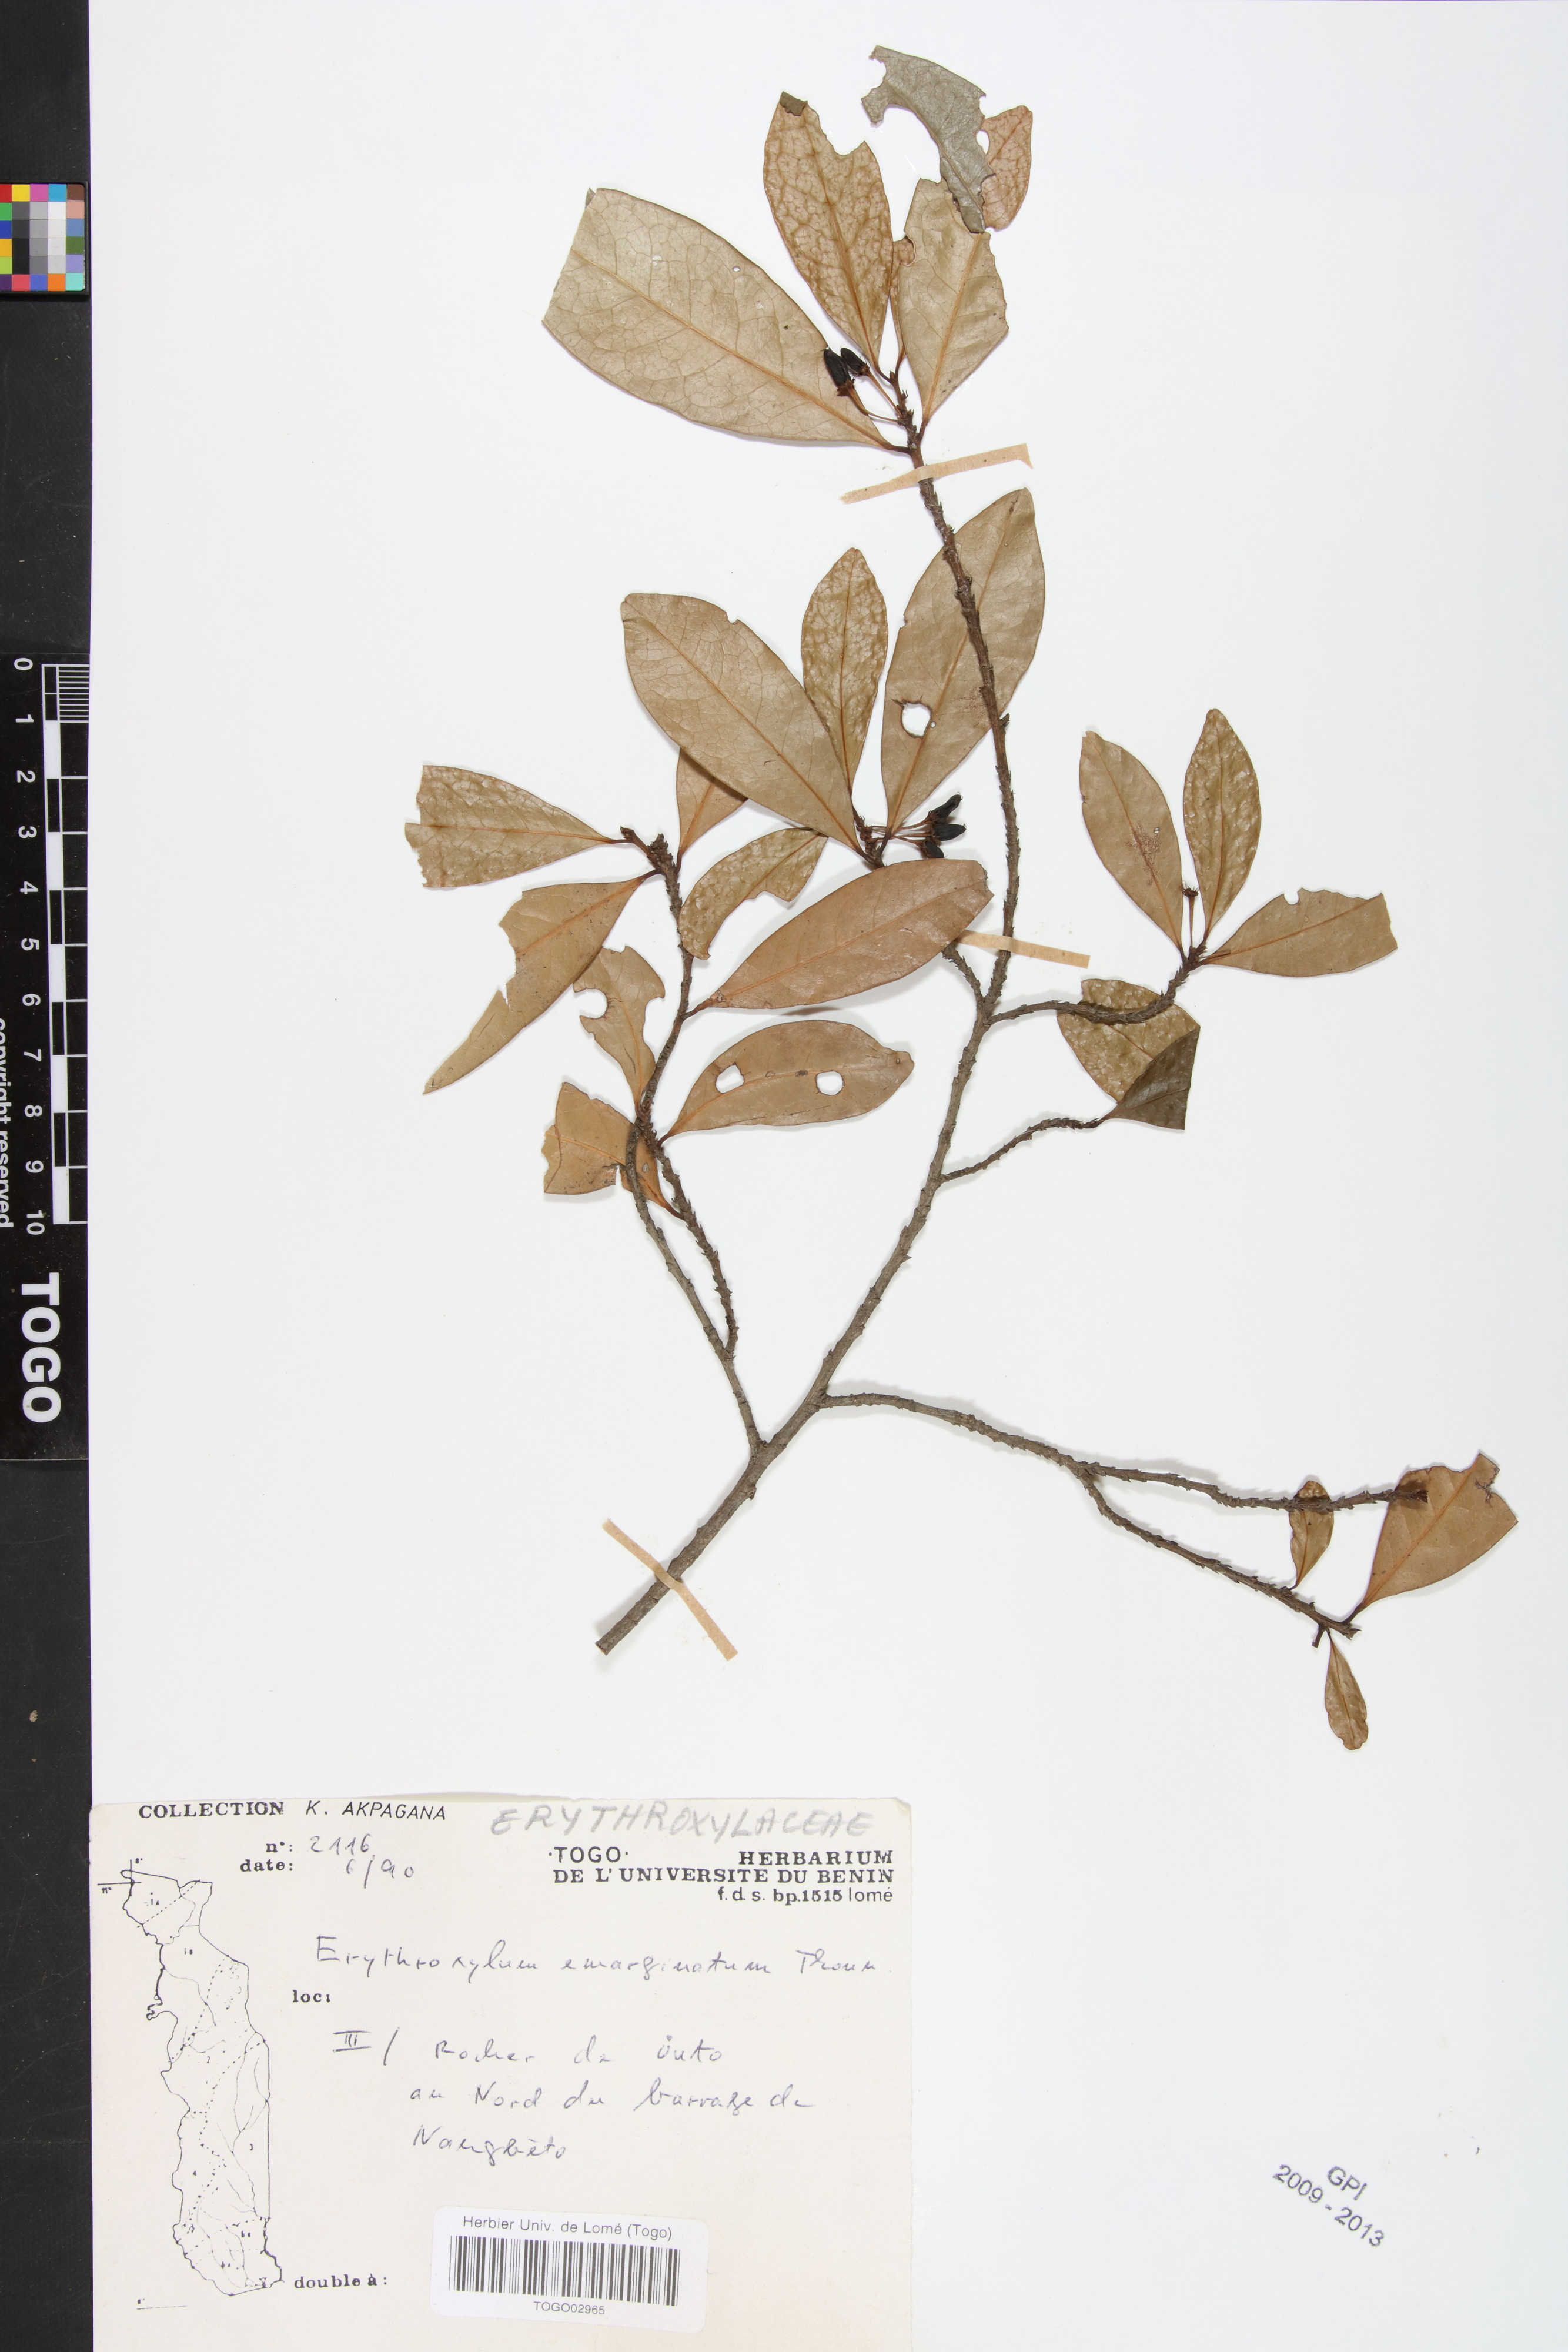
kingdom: Plantae
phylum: Tracheophyta
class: Magnoliopsida
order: Malpighiales
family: Erythroxylaceae
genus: Erythroxylum
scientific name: Erythroxylum emarginatum
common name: African coca-tree
